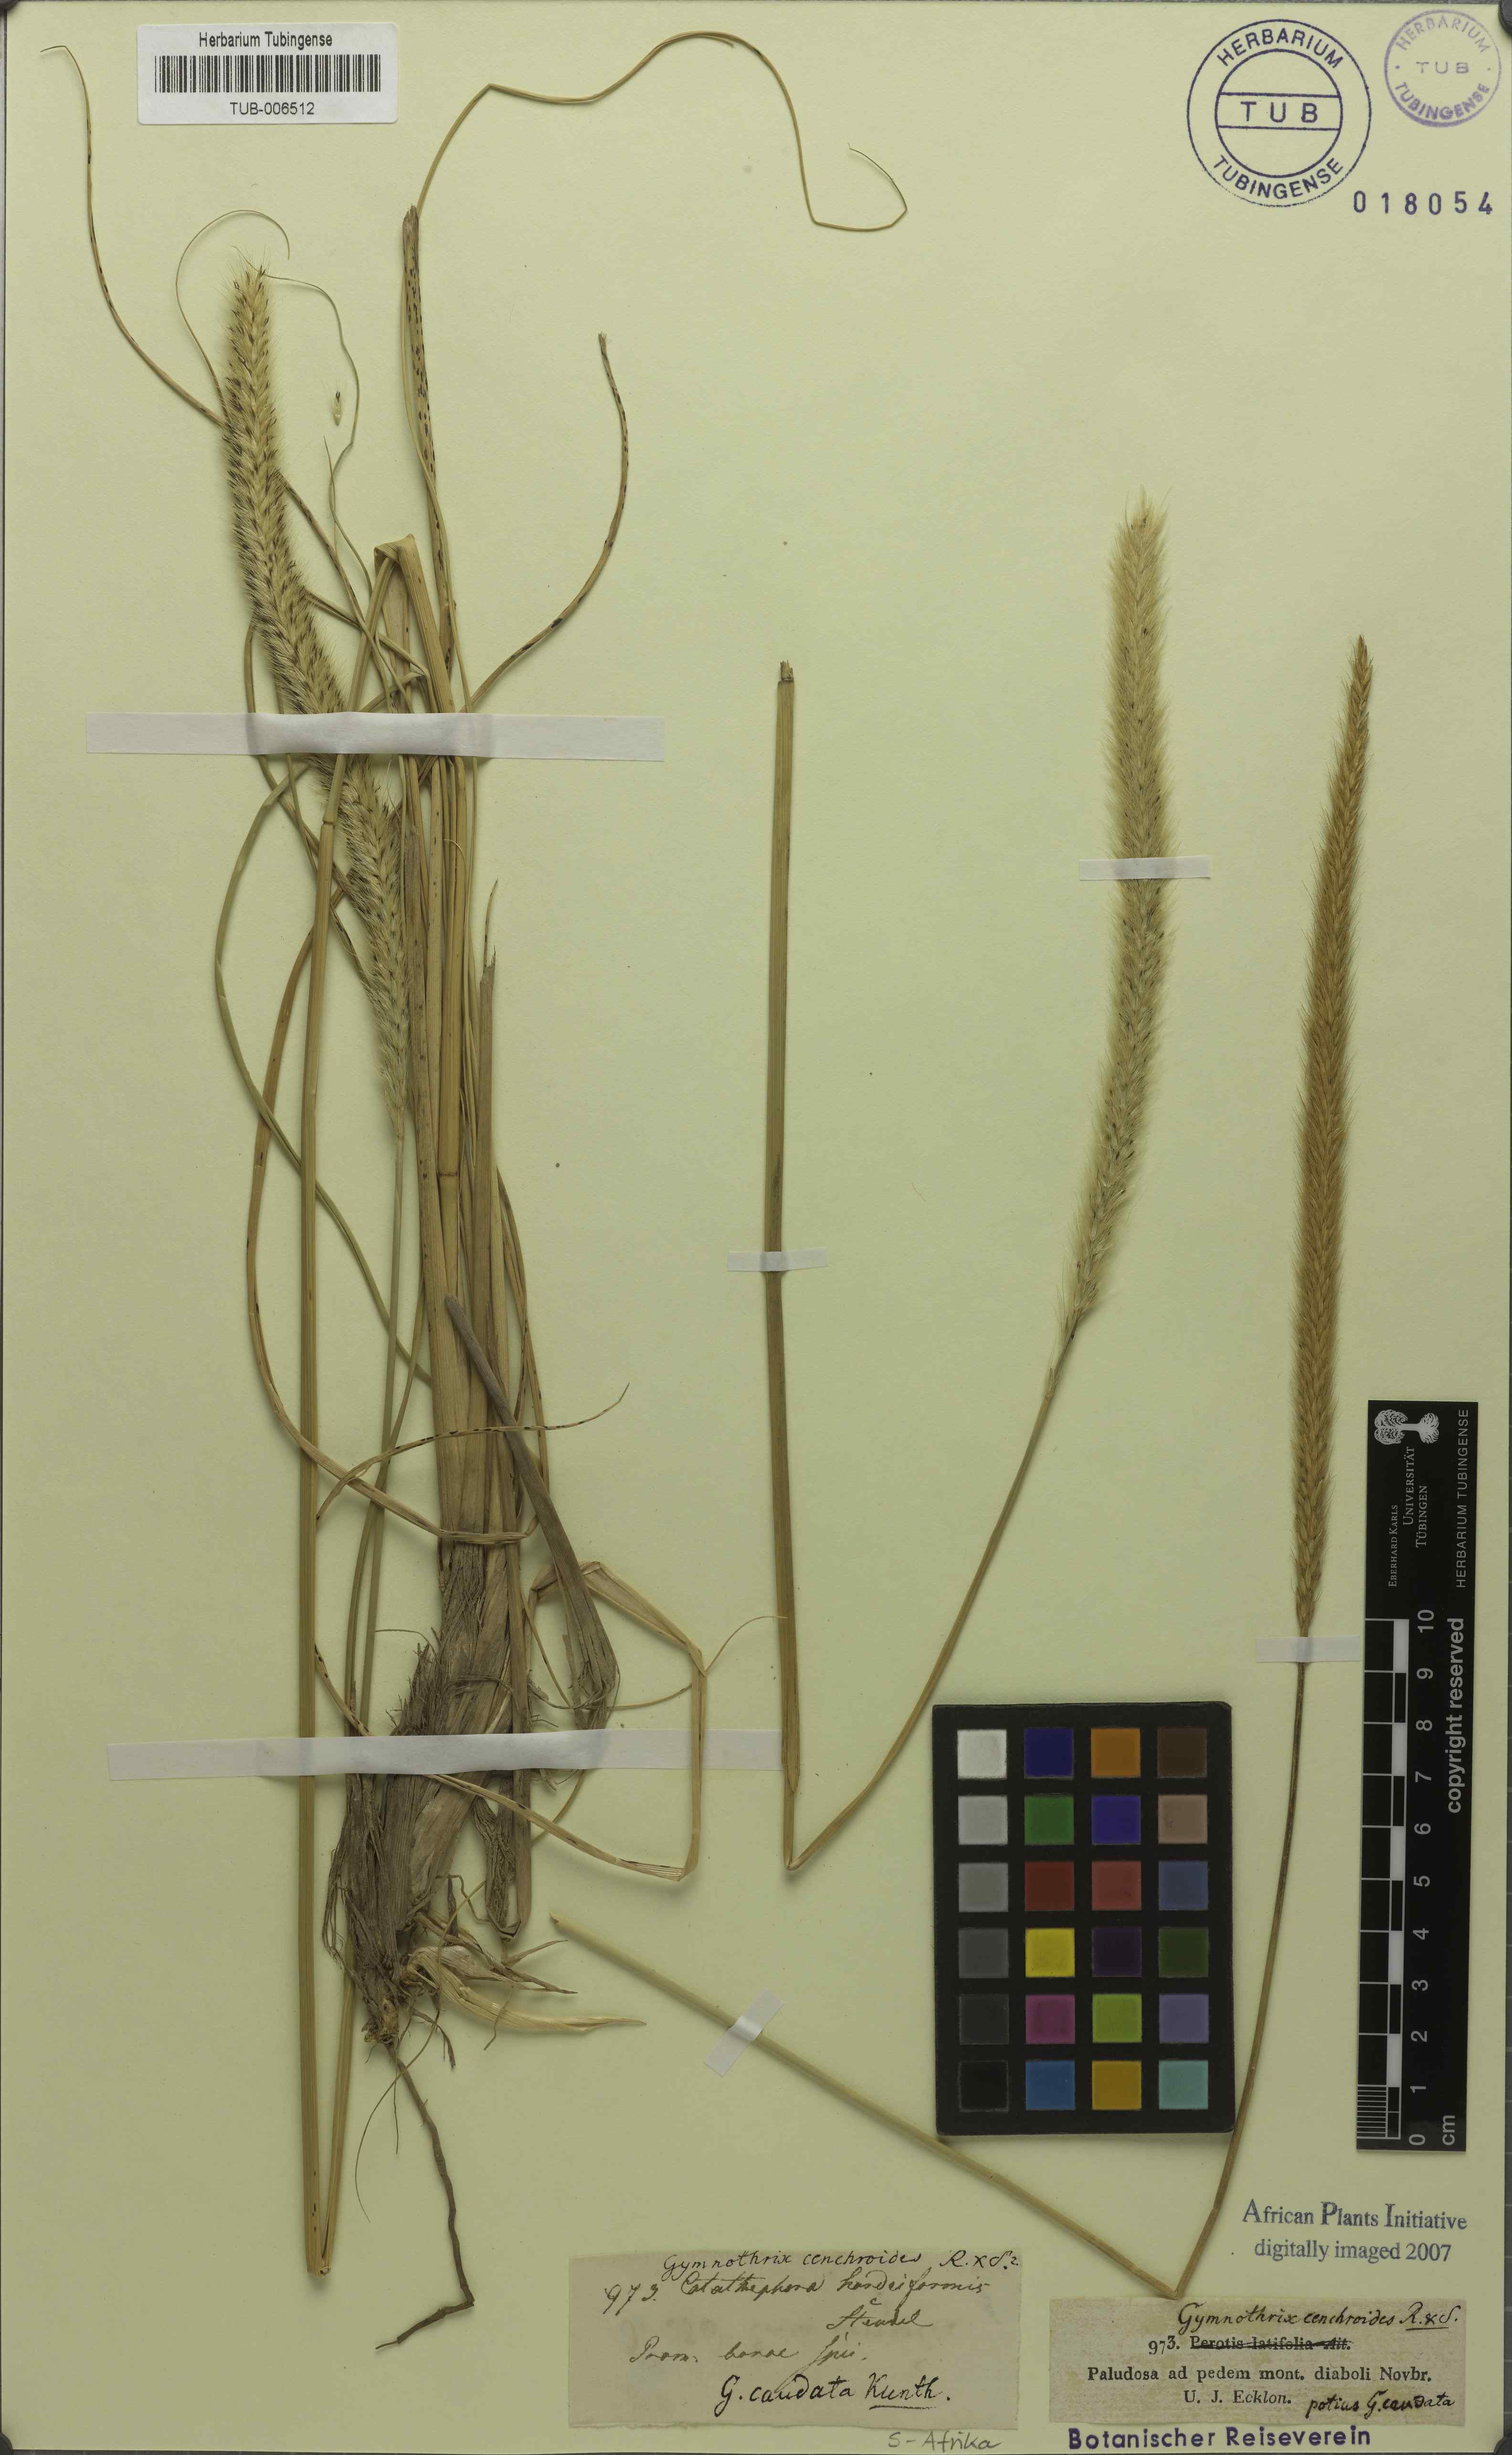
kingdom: Plantae
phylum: Tracheophyta
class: Liliopsida
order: Poales
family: Poaceae
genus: Cenchrus
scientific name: Cenchrus caudatus
